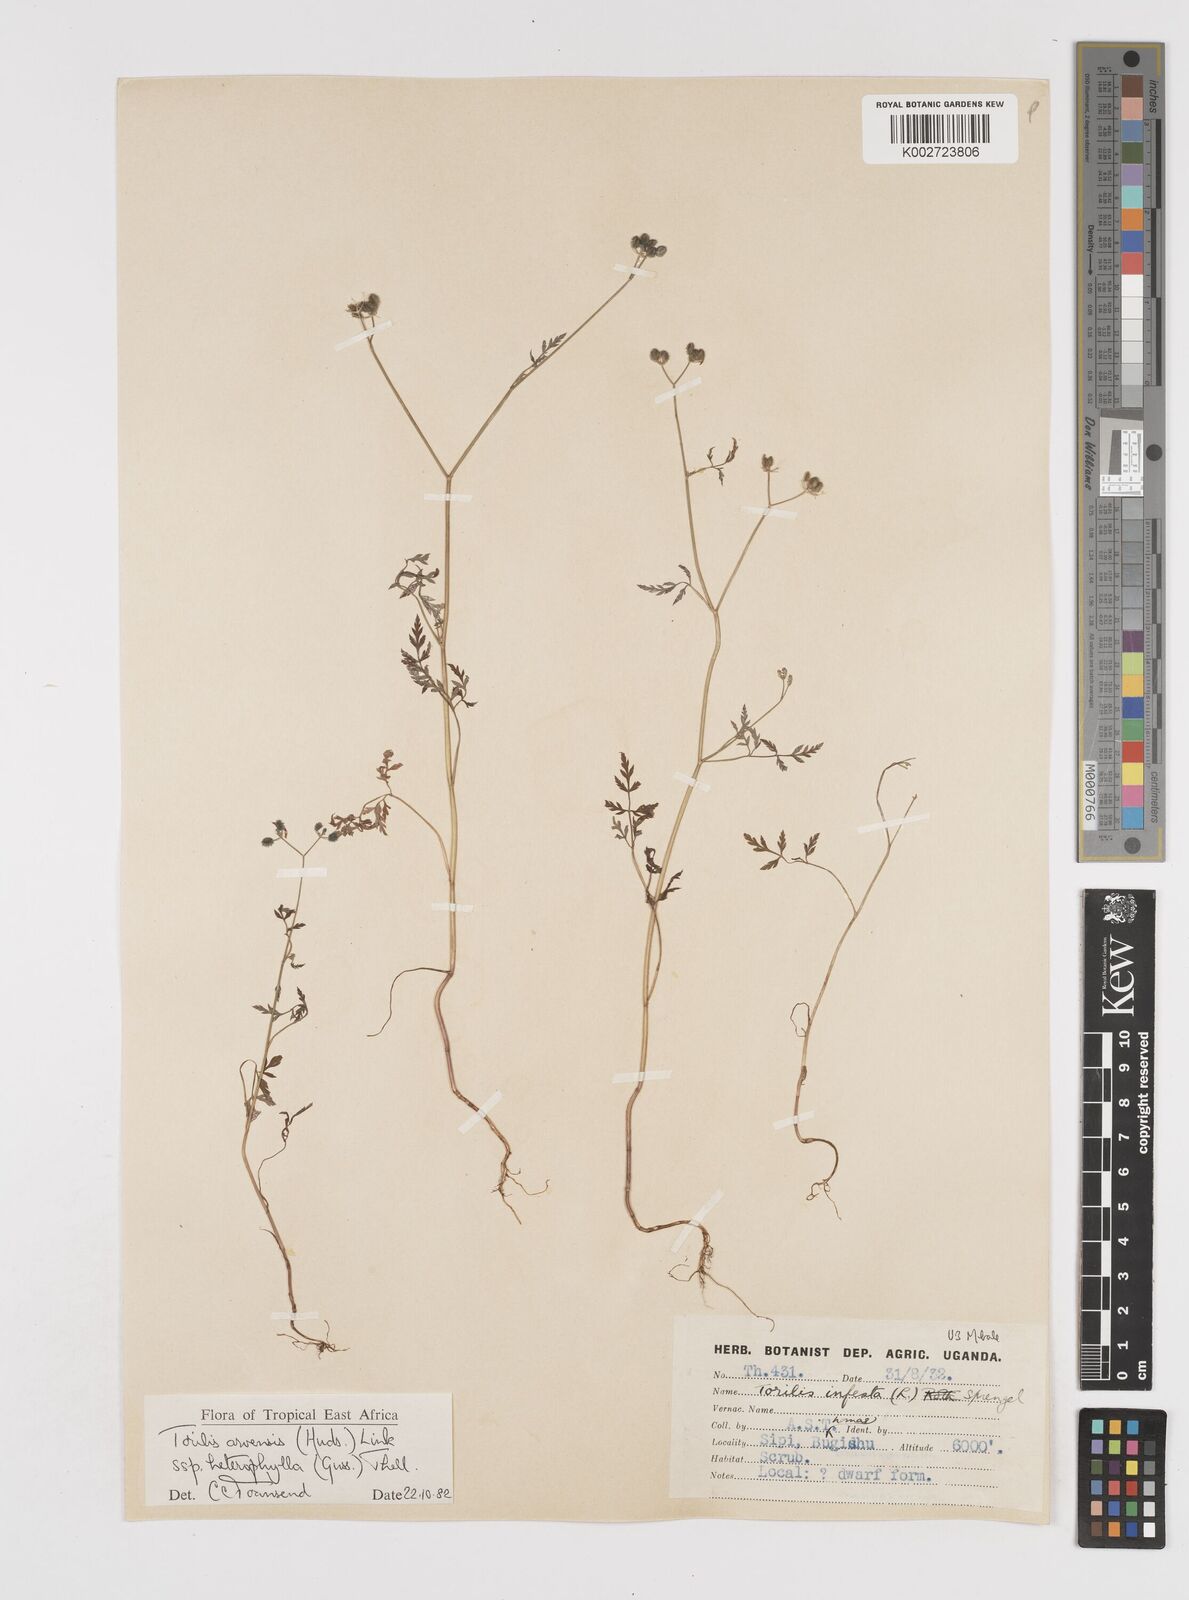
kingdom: Plantae
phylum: Tracheophyta
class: Magnoliopsida
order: Apiales
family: Apiaceae
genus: Torilis
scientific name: Torilis arvensis
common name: Spreading hedge-parsley
